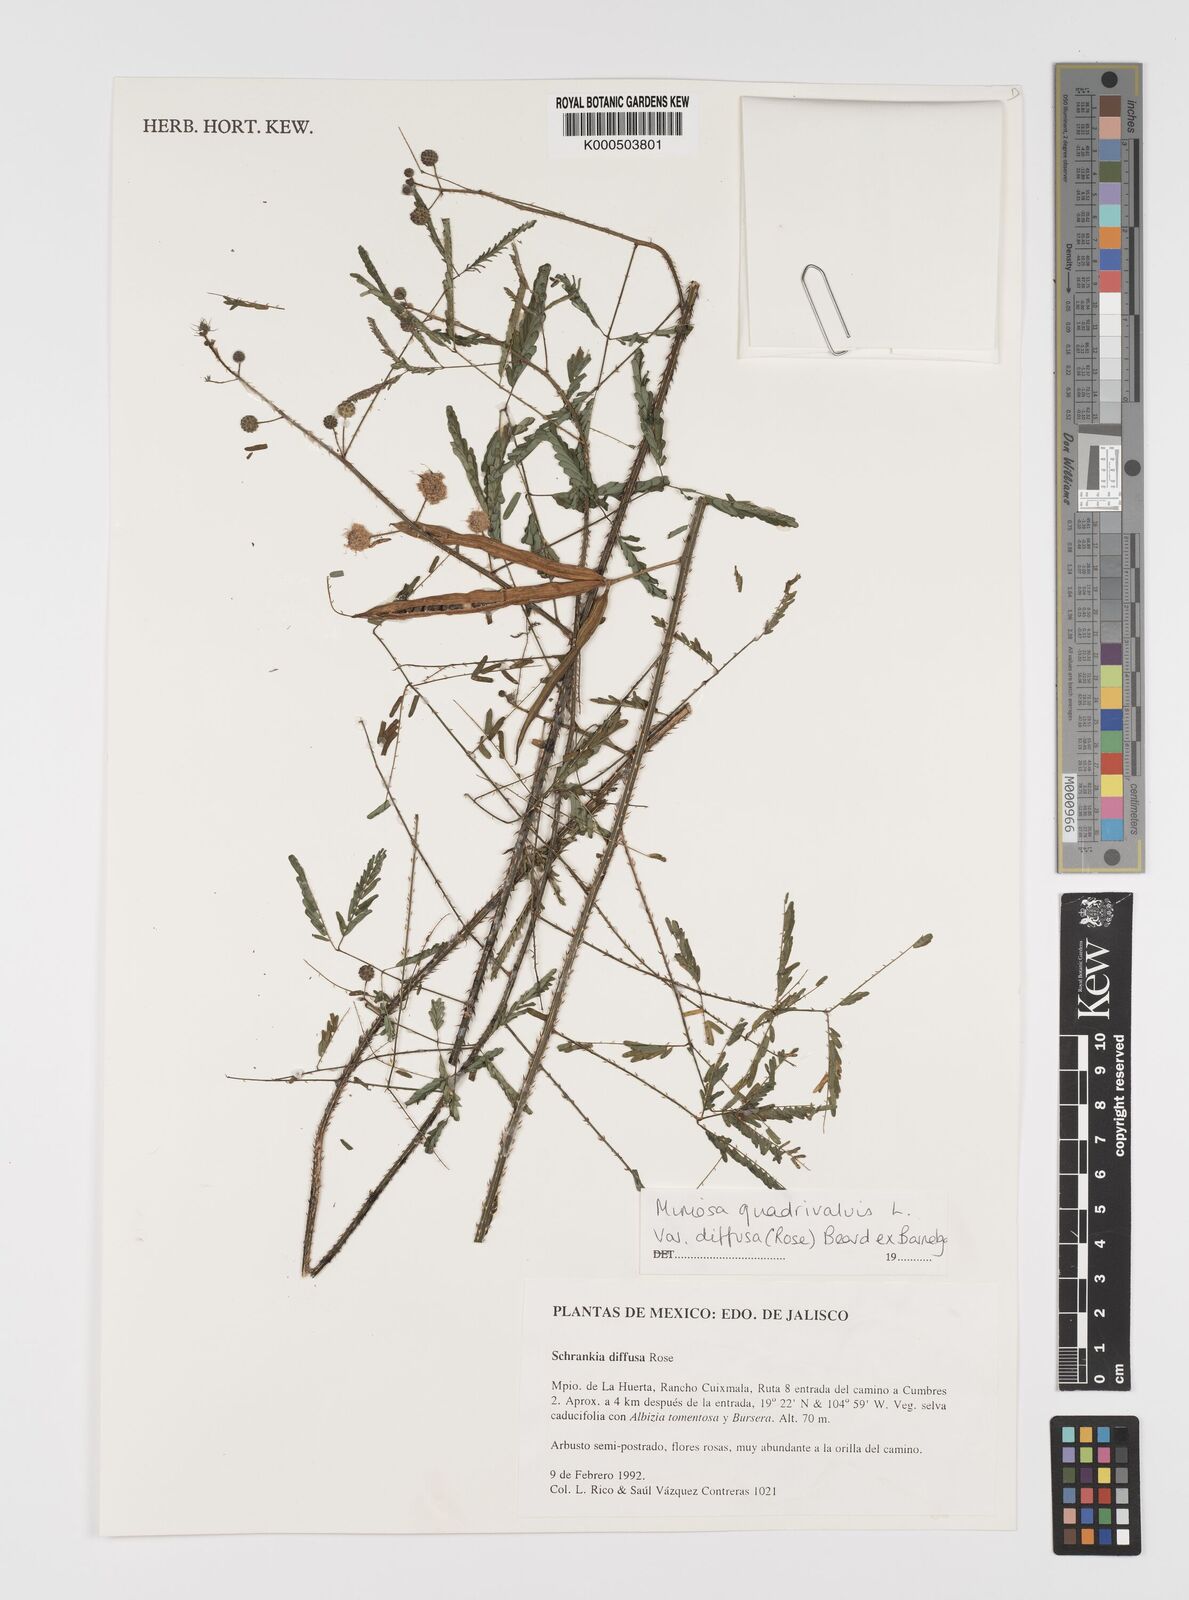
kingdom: Plantae
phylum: Tracheophyta
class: Magnoliopsida
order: Fabales
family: Fabaceae
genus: Mimosa
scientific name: Mimosa quadrivalvis
